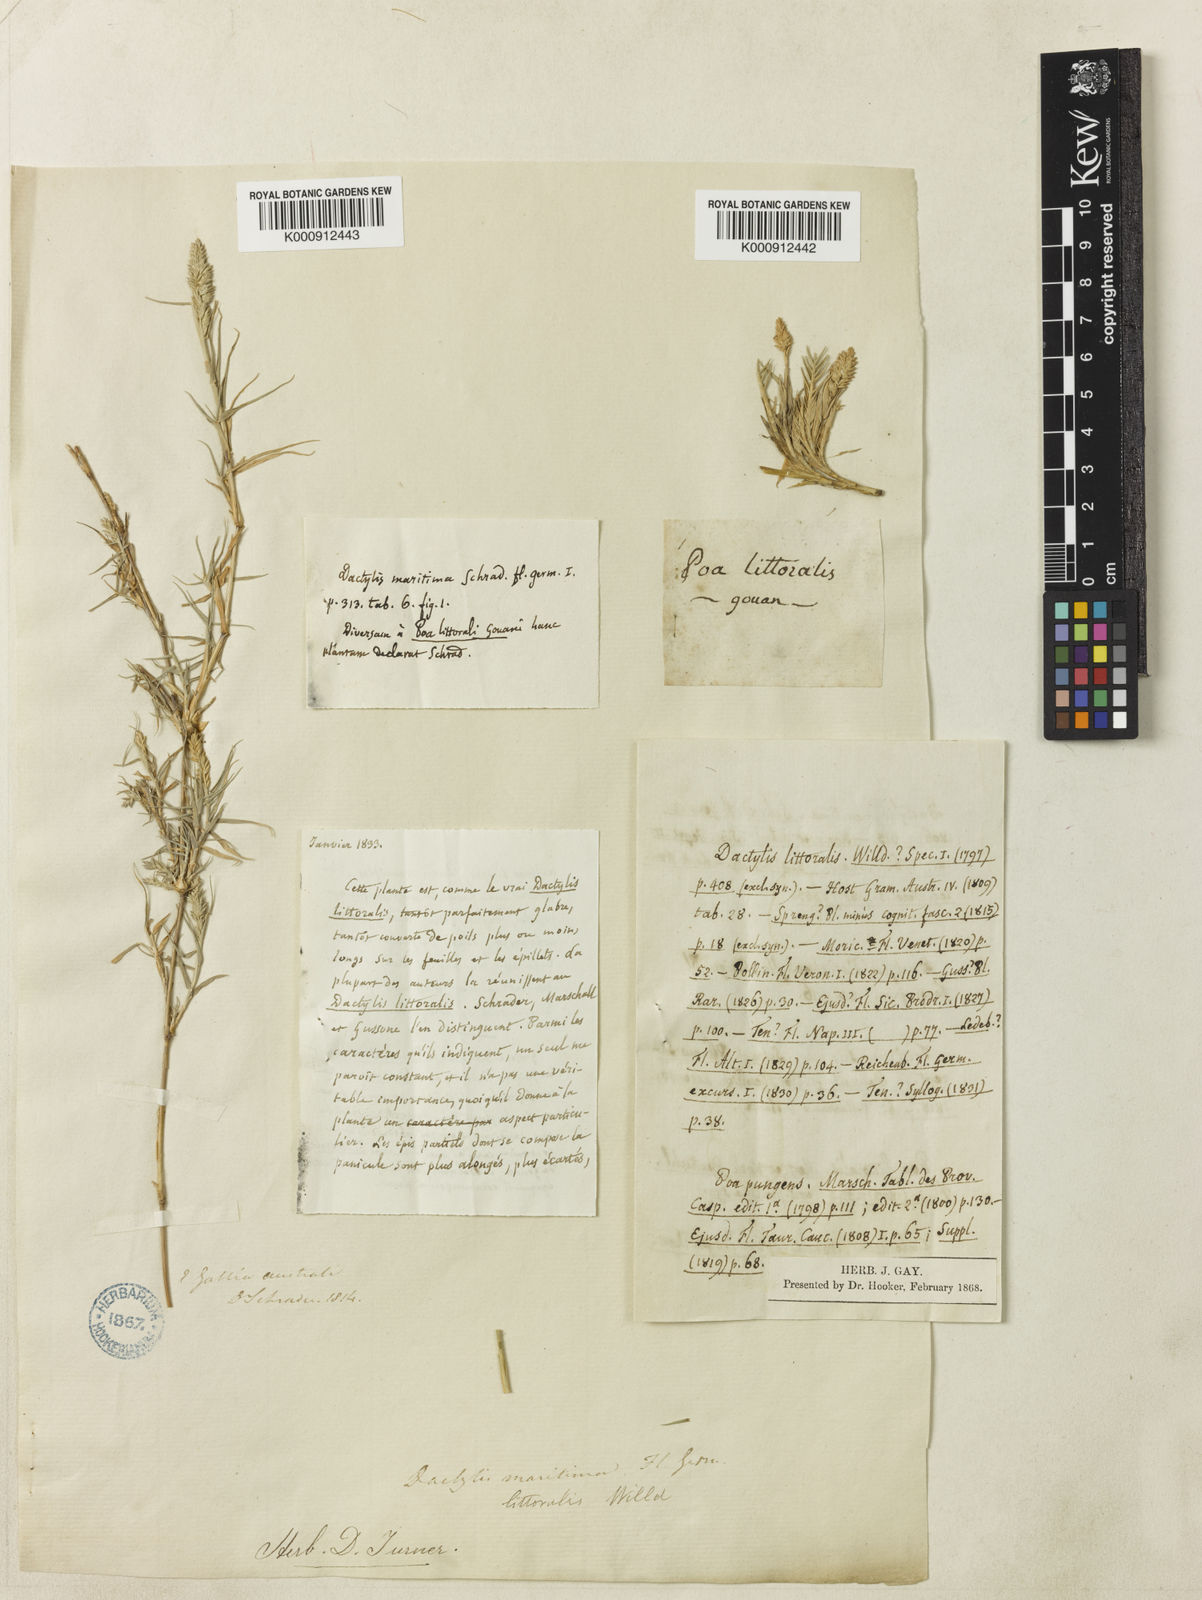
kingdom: Plantae
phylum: Tracheophyta
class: Liliopsida
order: Poales
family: Poaceae
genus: Aeluropus
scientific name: Aeluropus littoralis
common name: Indian walnut
